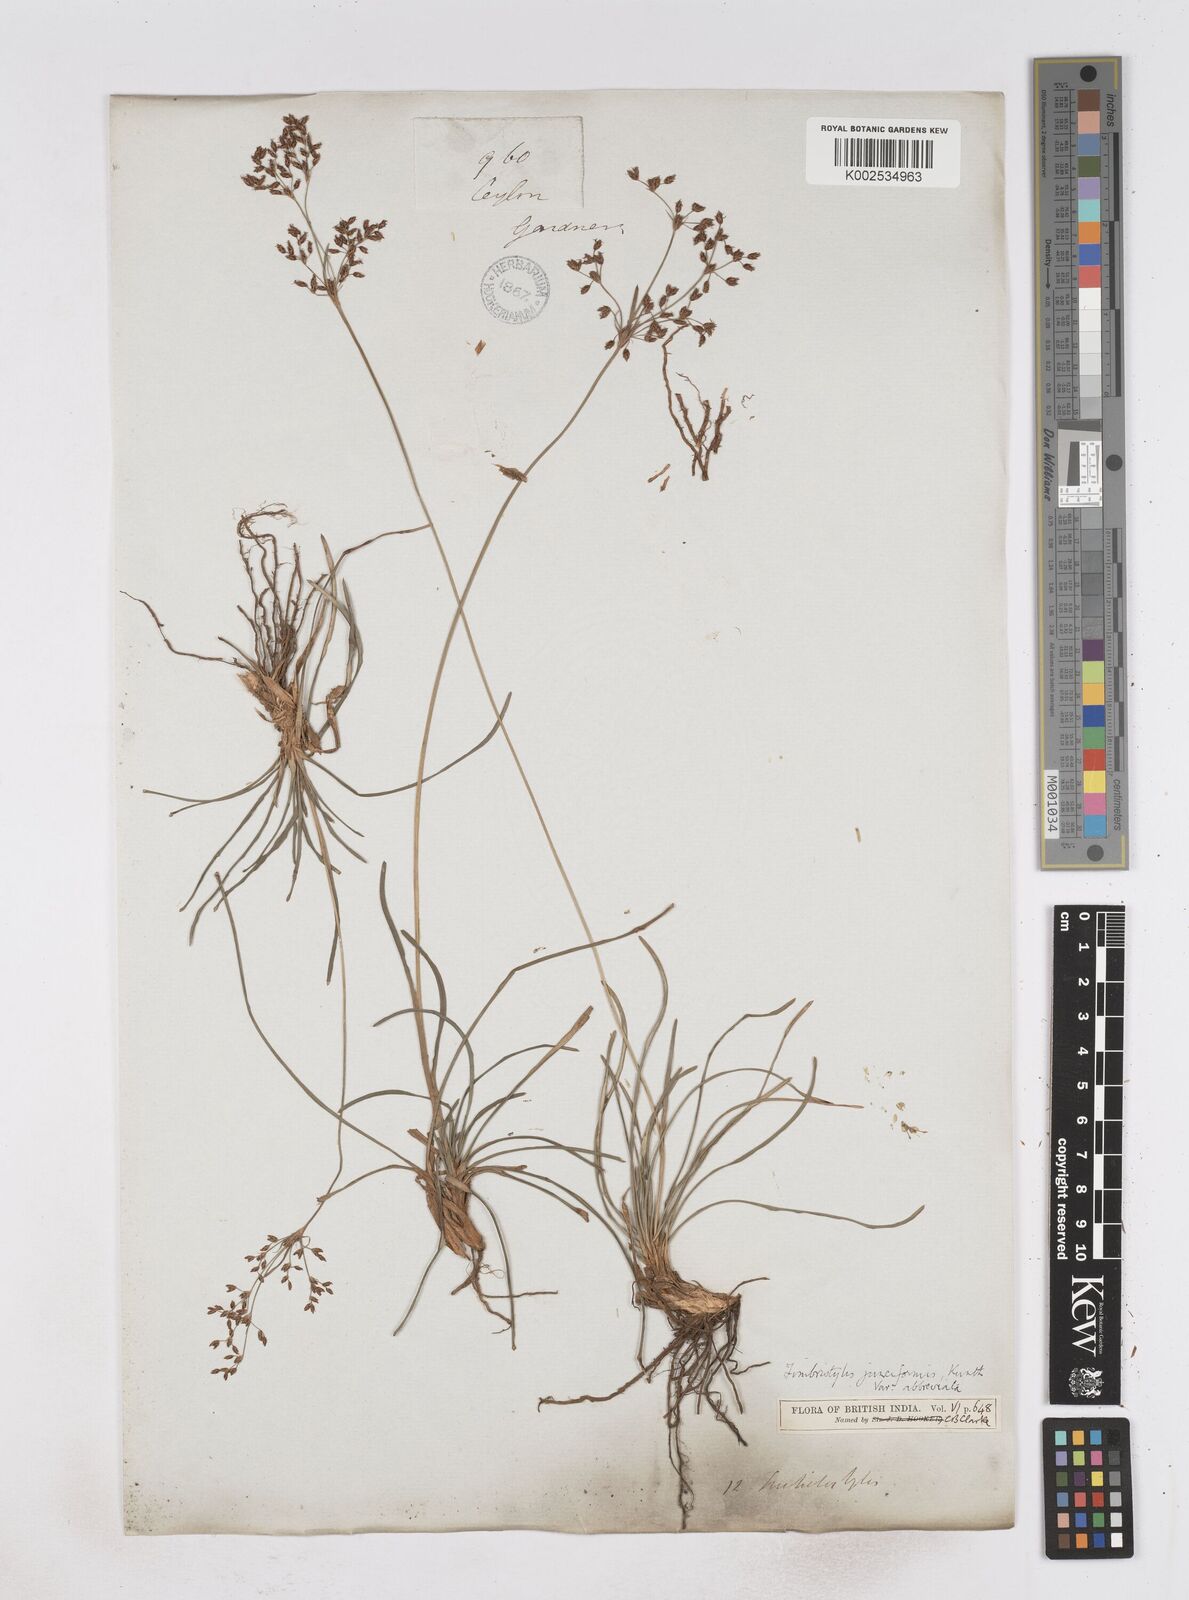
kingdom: Plantae
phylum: Tracheophyta
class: Liliopsida
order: Poales
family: Cyperaceae
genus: Fimbristylis
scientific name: Fimbristylis falcata
